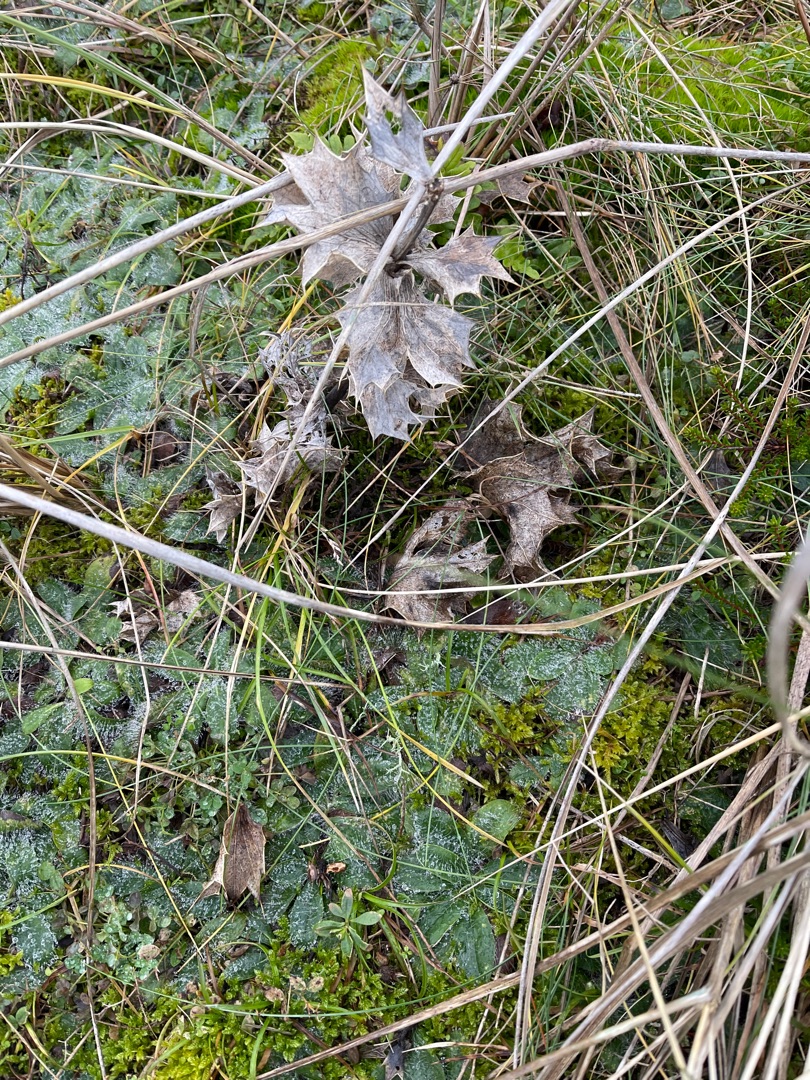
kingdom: Plantae
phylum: Tracheophyta
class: Magnoliopsida
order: Apiales
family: Apiaceae
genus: Eryngium
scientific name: Eryngium maritimum
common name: Strand-mandstro
